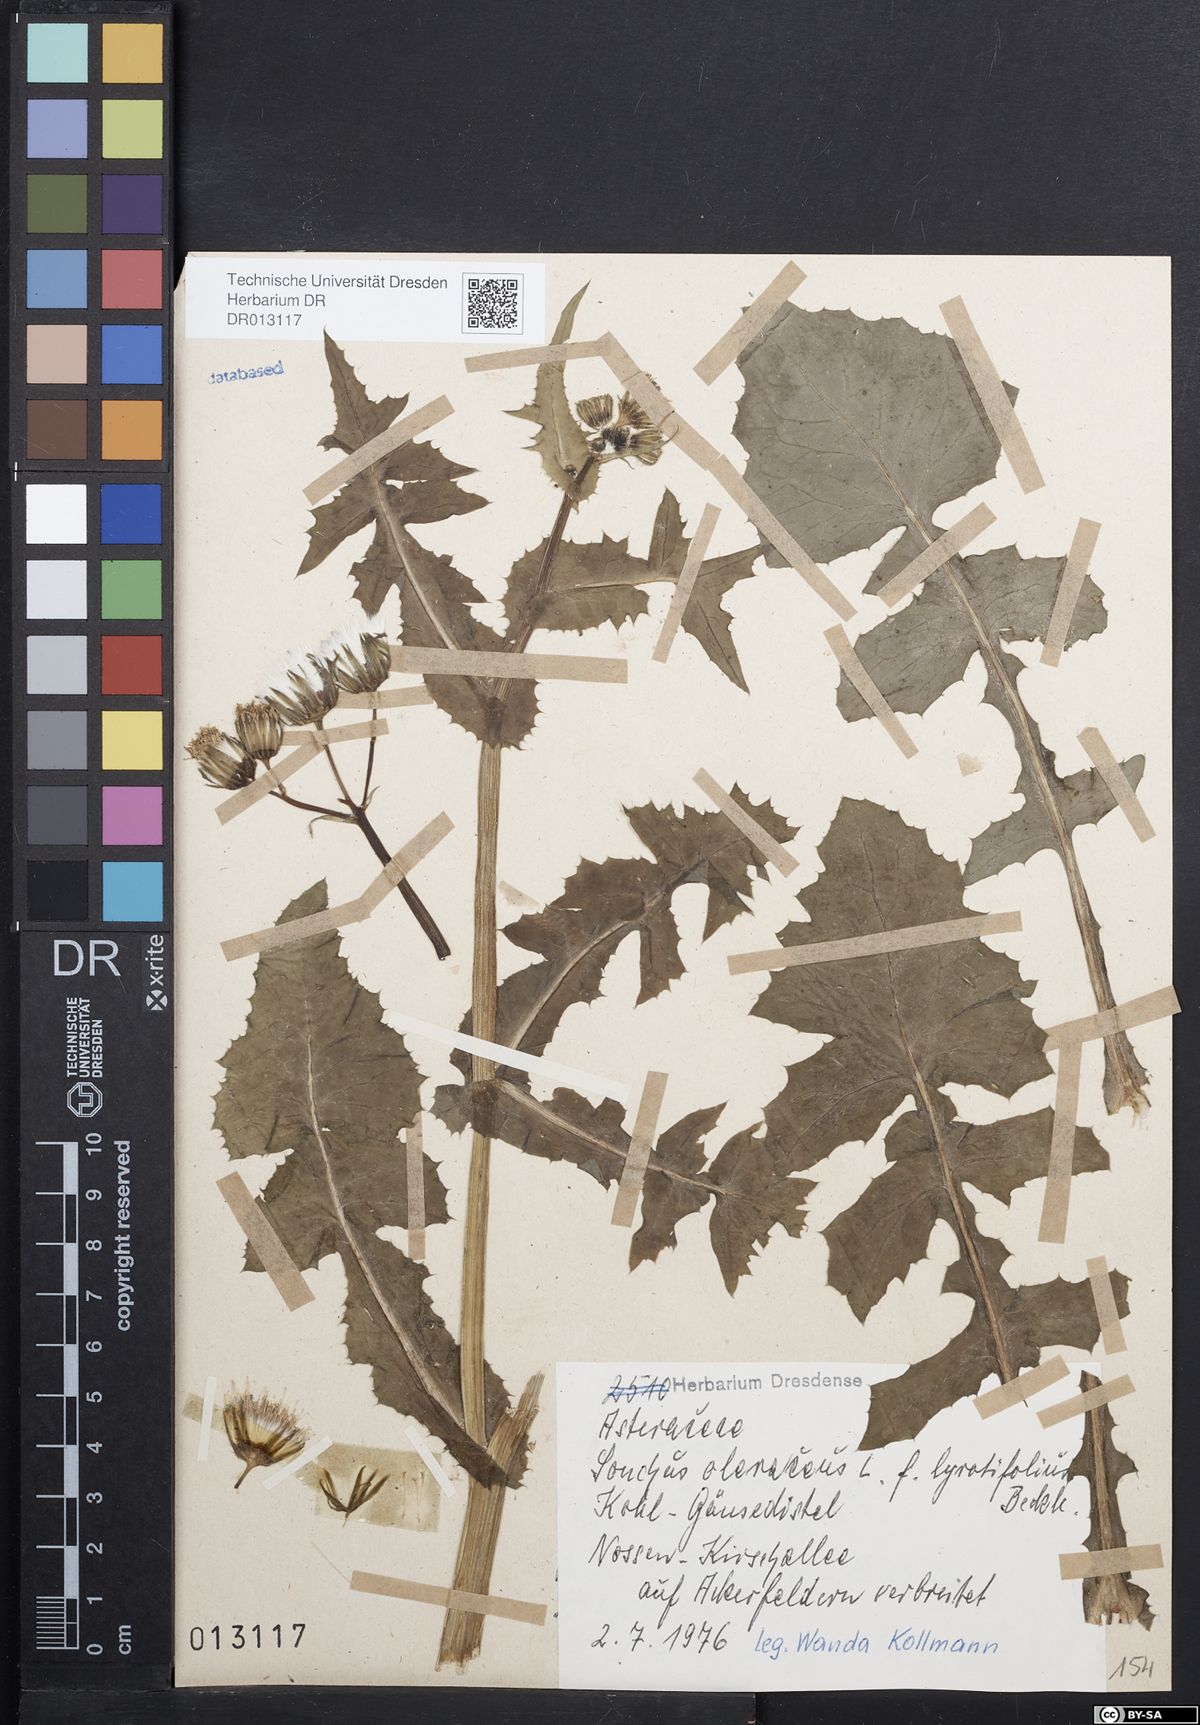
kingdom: Plantae
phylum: Tracheophyta
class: Magnoliopsida
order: Asterales
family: Asteraceae
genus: Sonchus
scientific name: Sonchus oleraceus
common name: Common sowthistle
